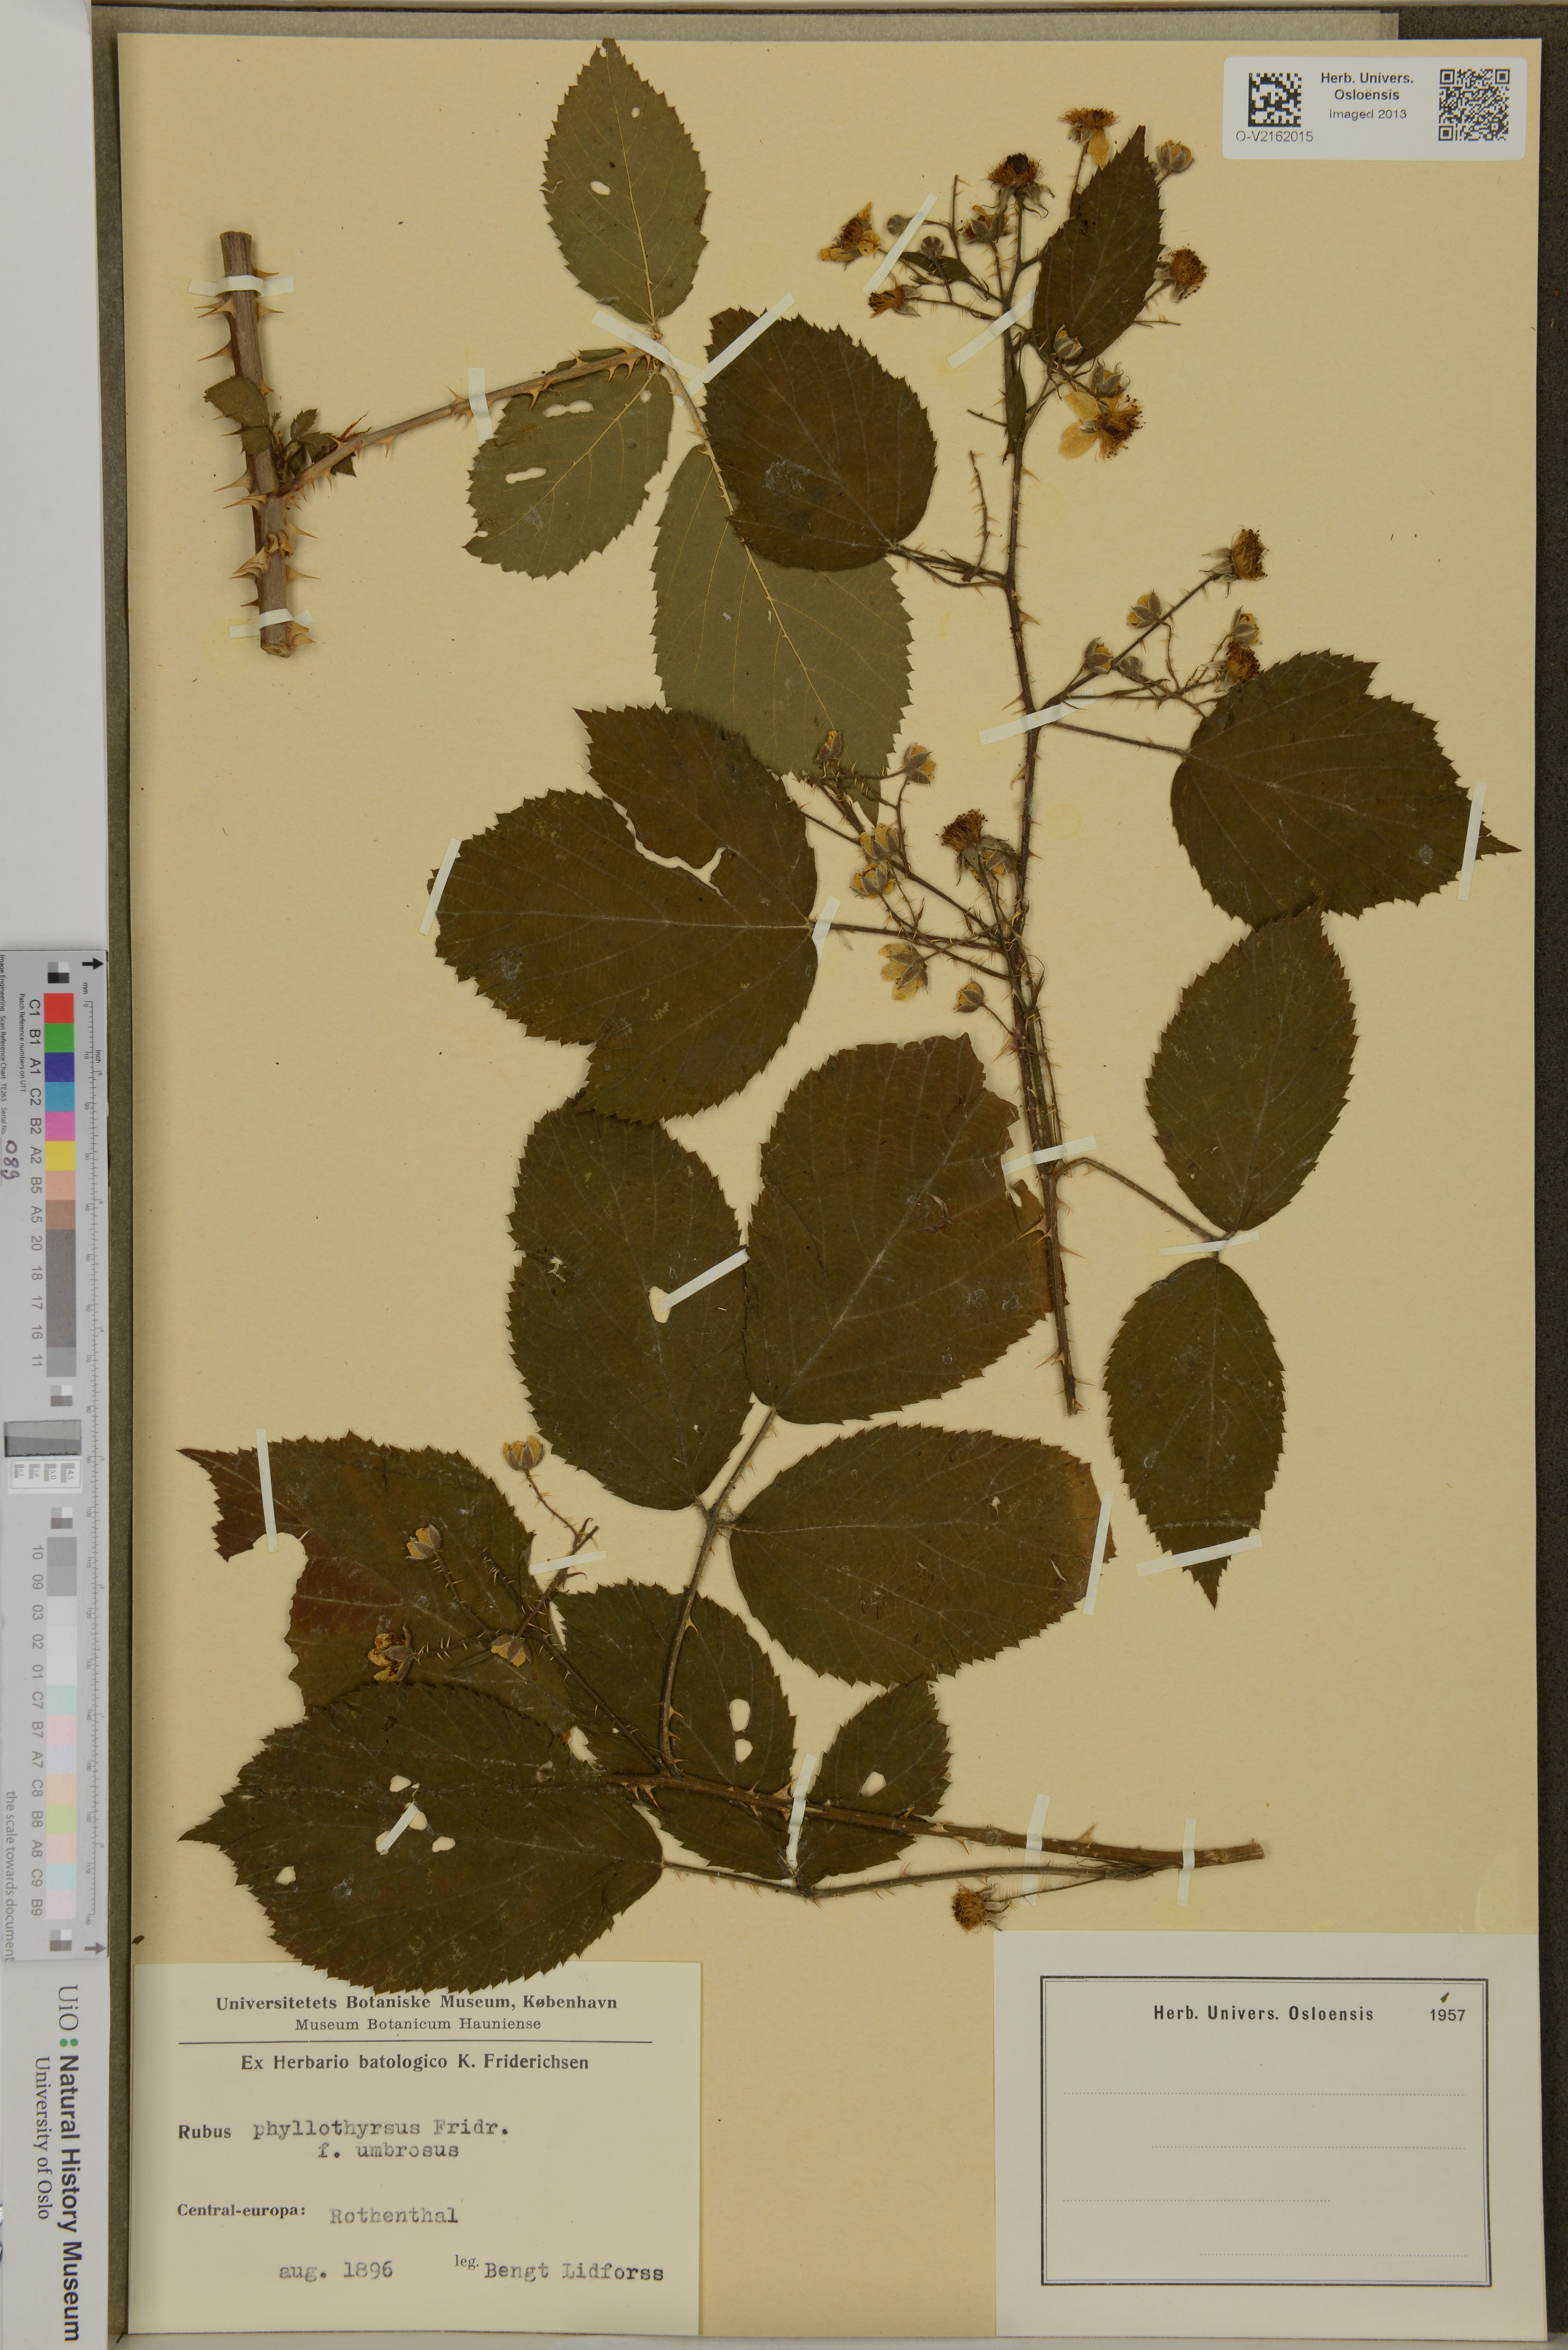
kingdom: Plantae
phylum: Tracheophyta
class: Magnoliopsida
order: Rosales
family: Rosaceae
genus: Rubus
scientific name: Rubus phyllothyrsus
